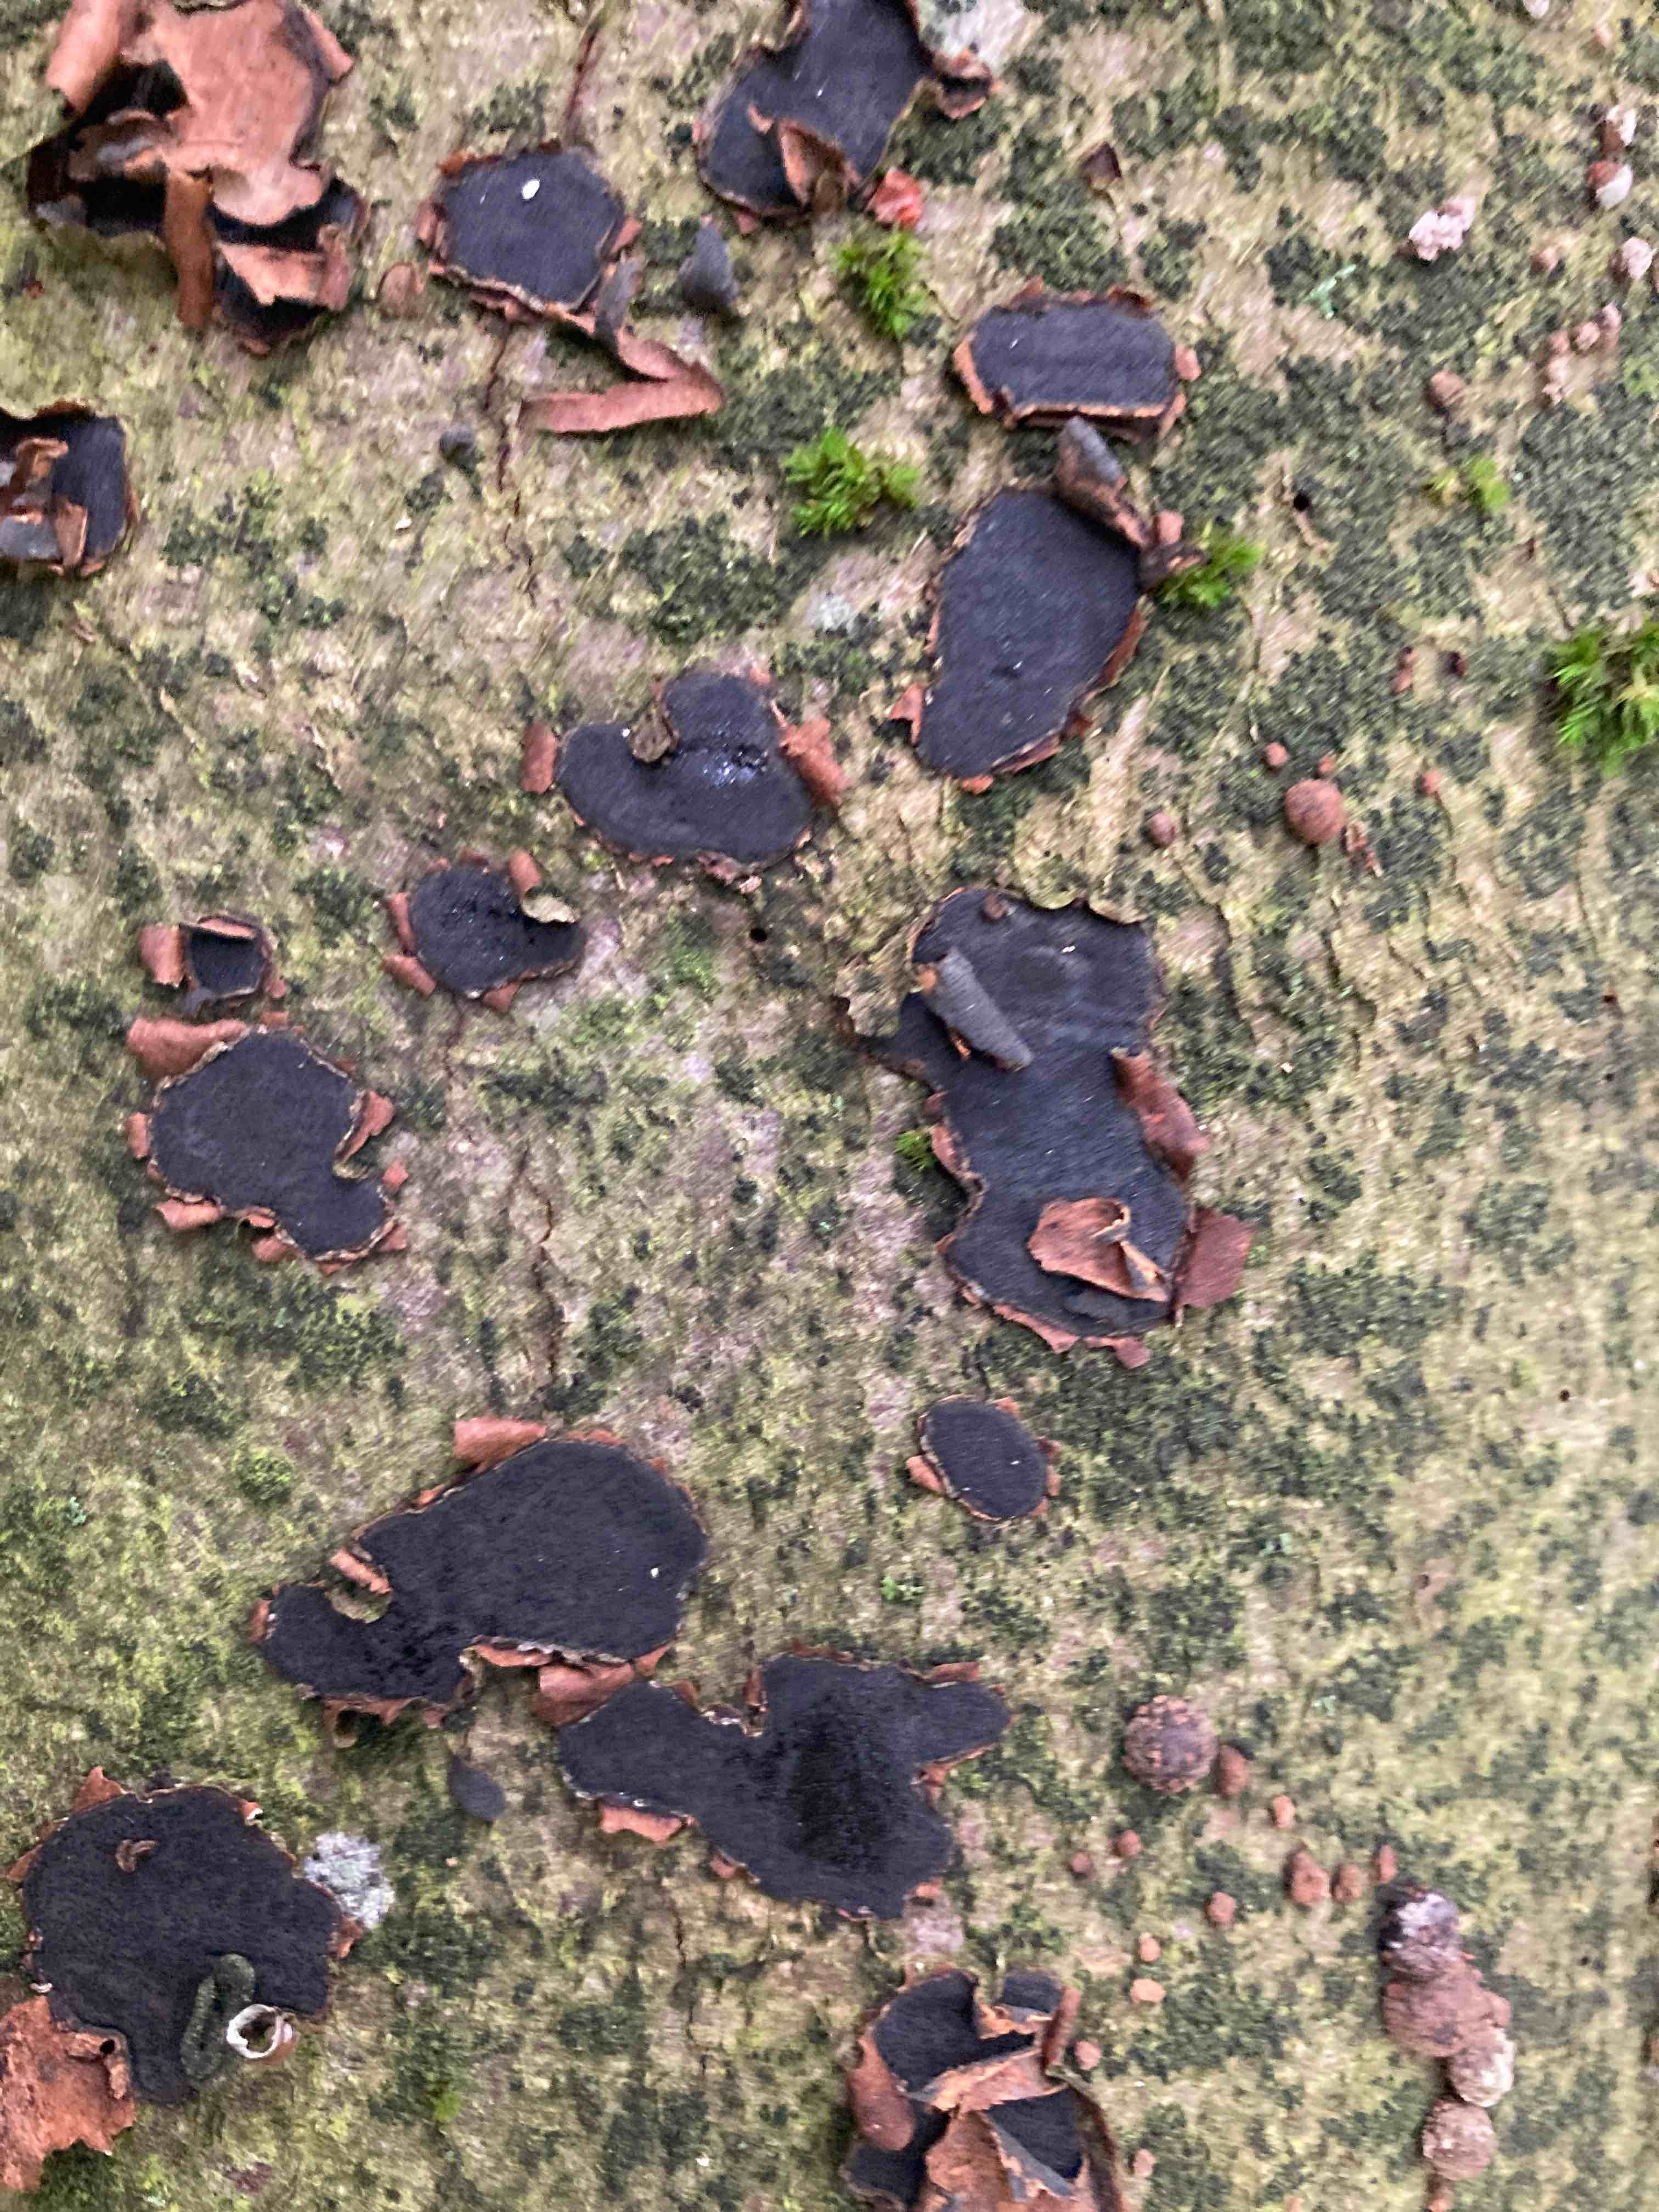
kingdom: Fungi
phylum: Ascomycota
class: Sordariomycetes
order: Xylariales
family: Graphostromataceae
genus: Biscogniauxia
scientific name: Biscogniauxia nummularia
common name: bøge-kulskive
